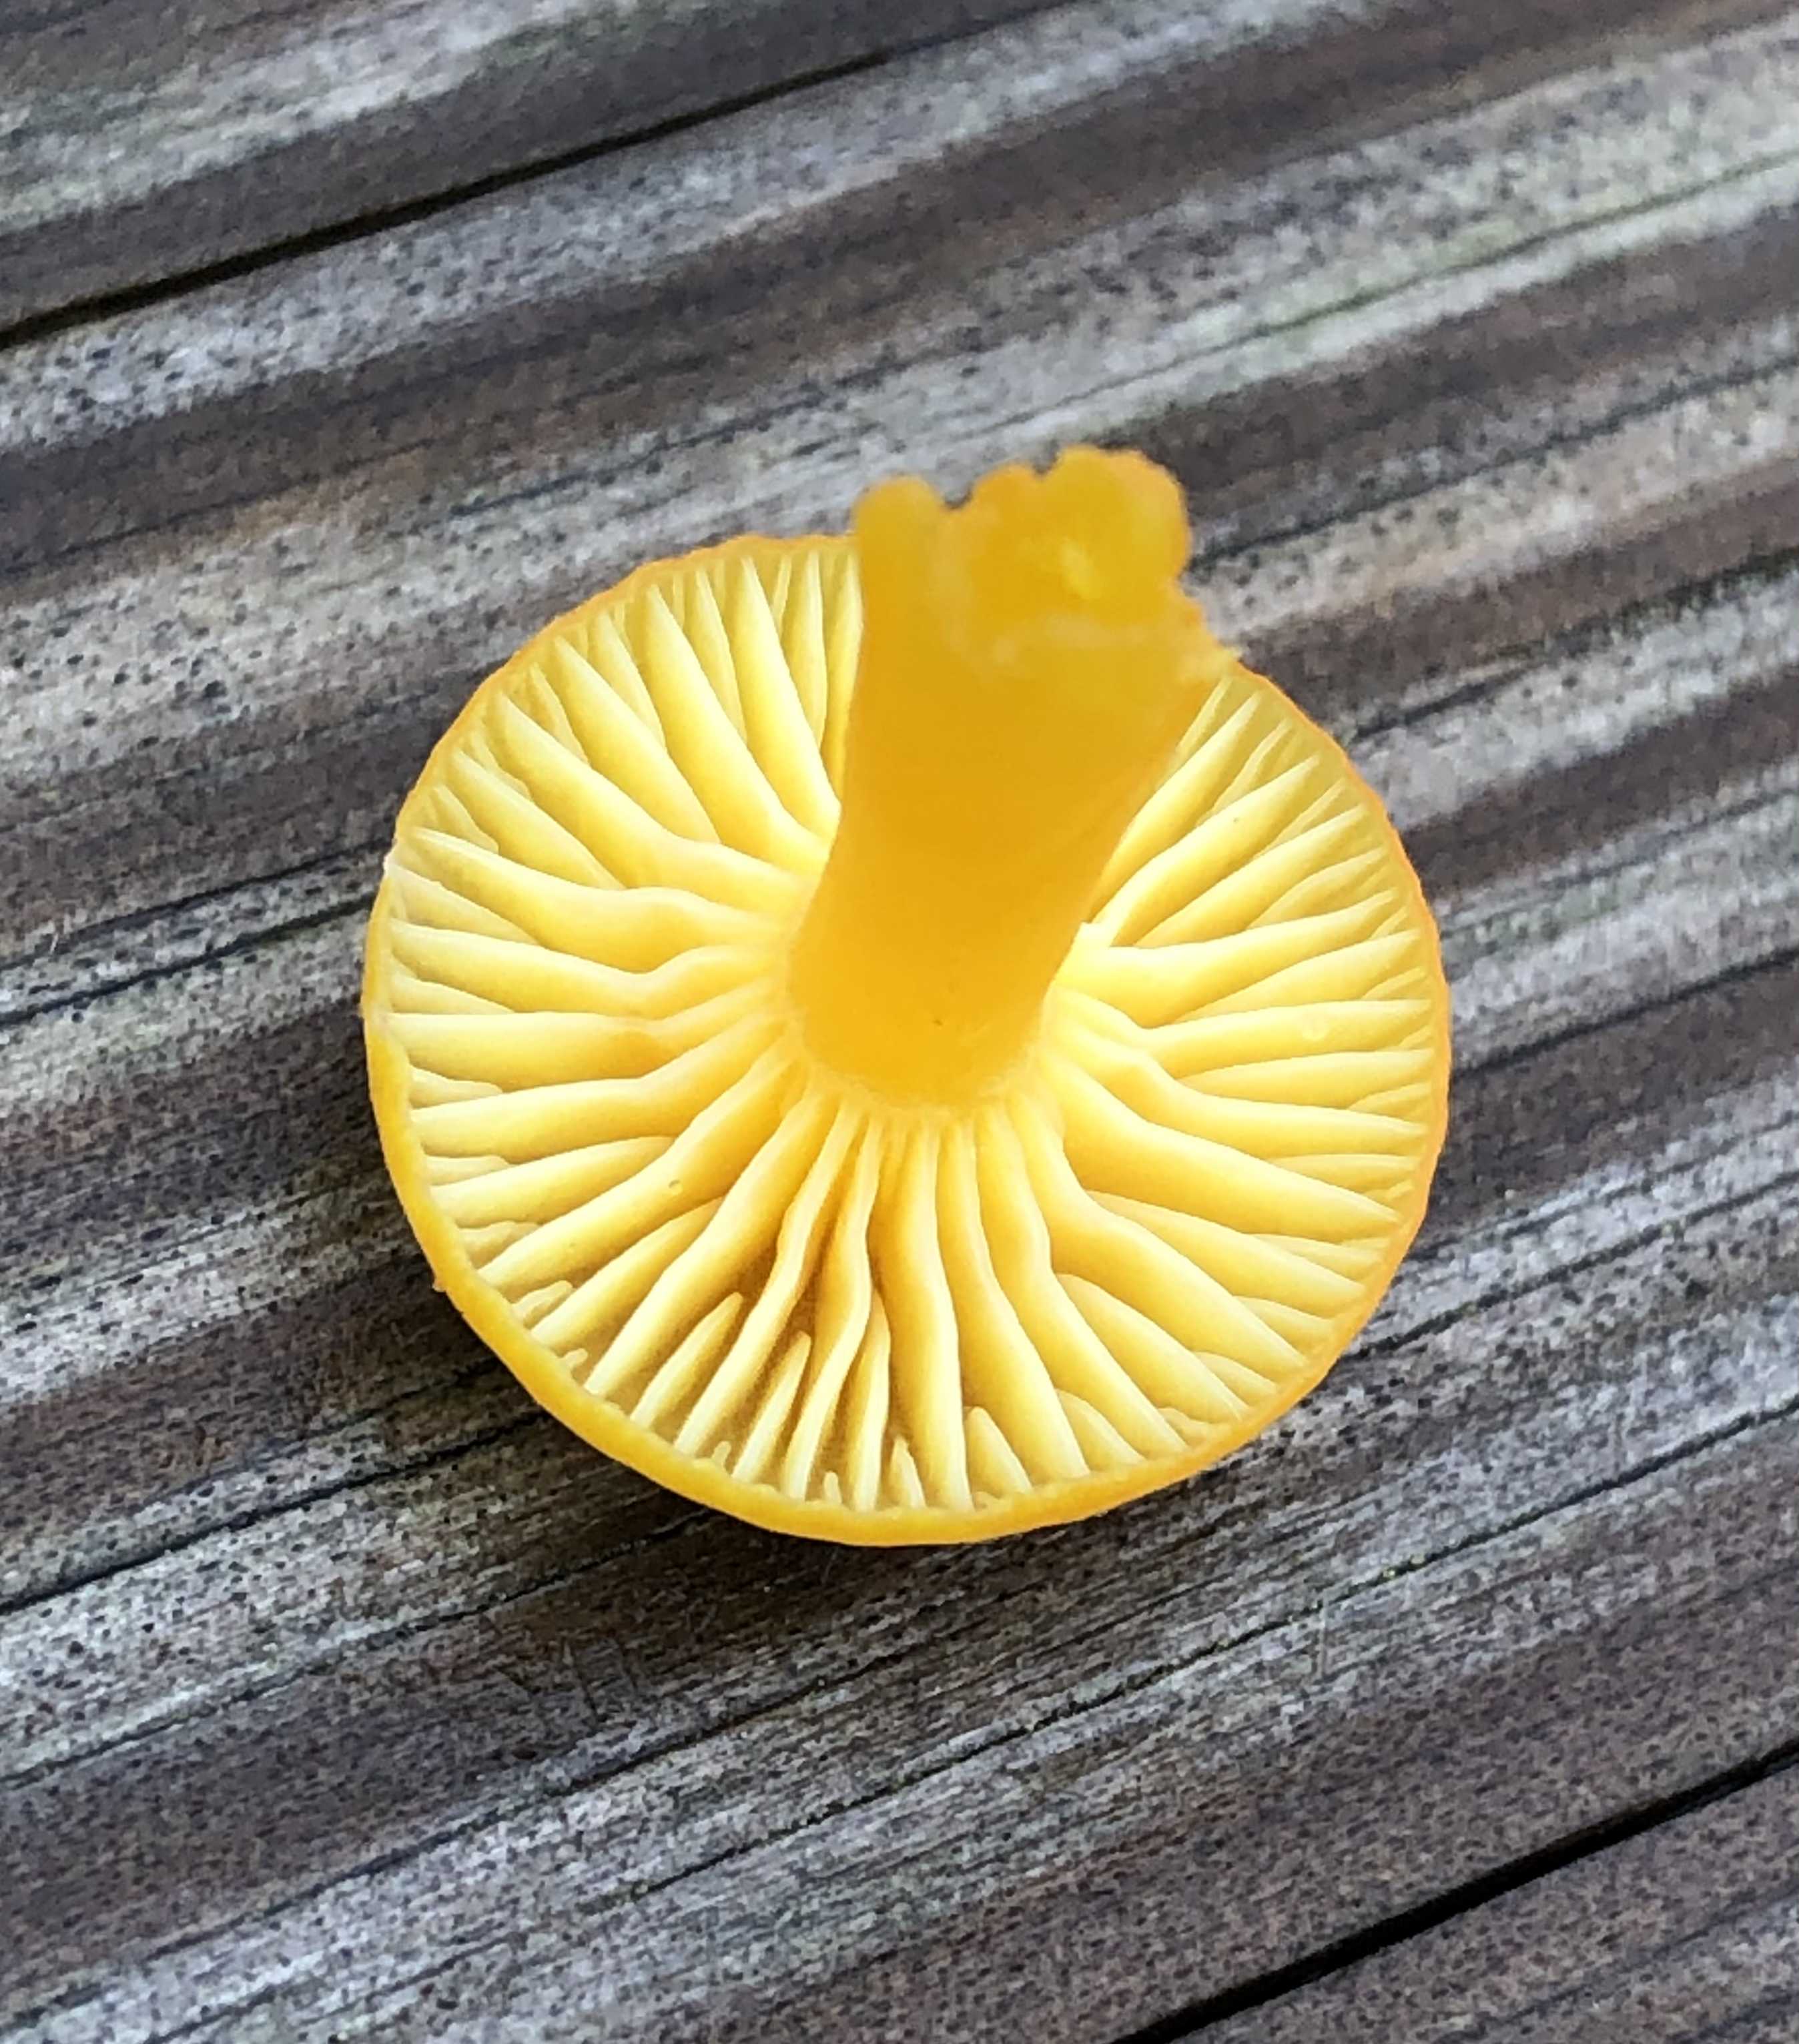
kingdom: Fungi
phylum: Basidiomycota
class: Agaricomycetes
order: Agaricales
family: Hygrophoraceae
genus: Hygrocybe
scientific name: Hygrocybe ceracea
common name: voksgul vokshat
